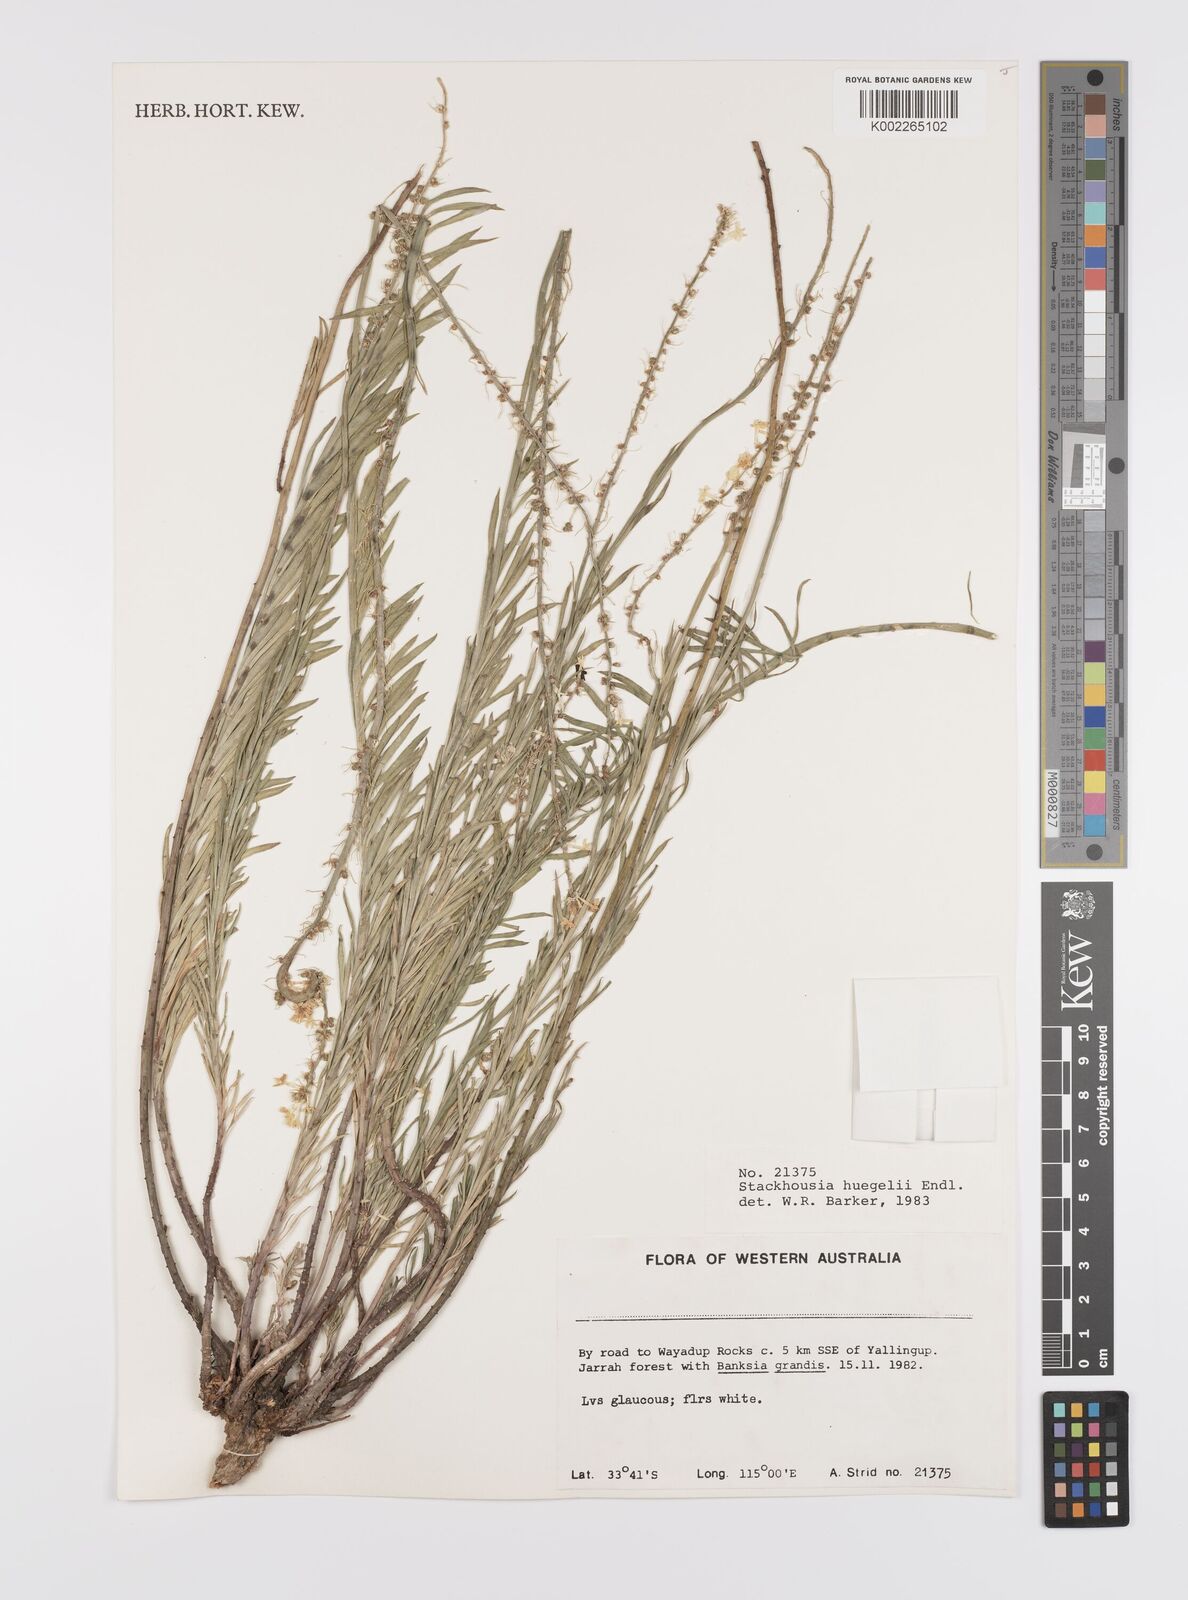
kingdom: Plantae
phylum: Tracheophyta
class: Magnoliopsida
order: Celastrales
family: Celastraceae
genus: Stackhousia
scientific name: Stackhousia monogyna
